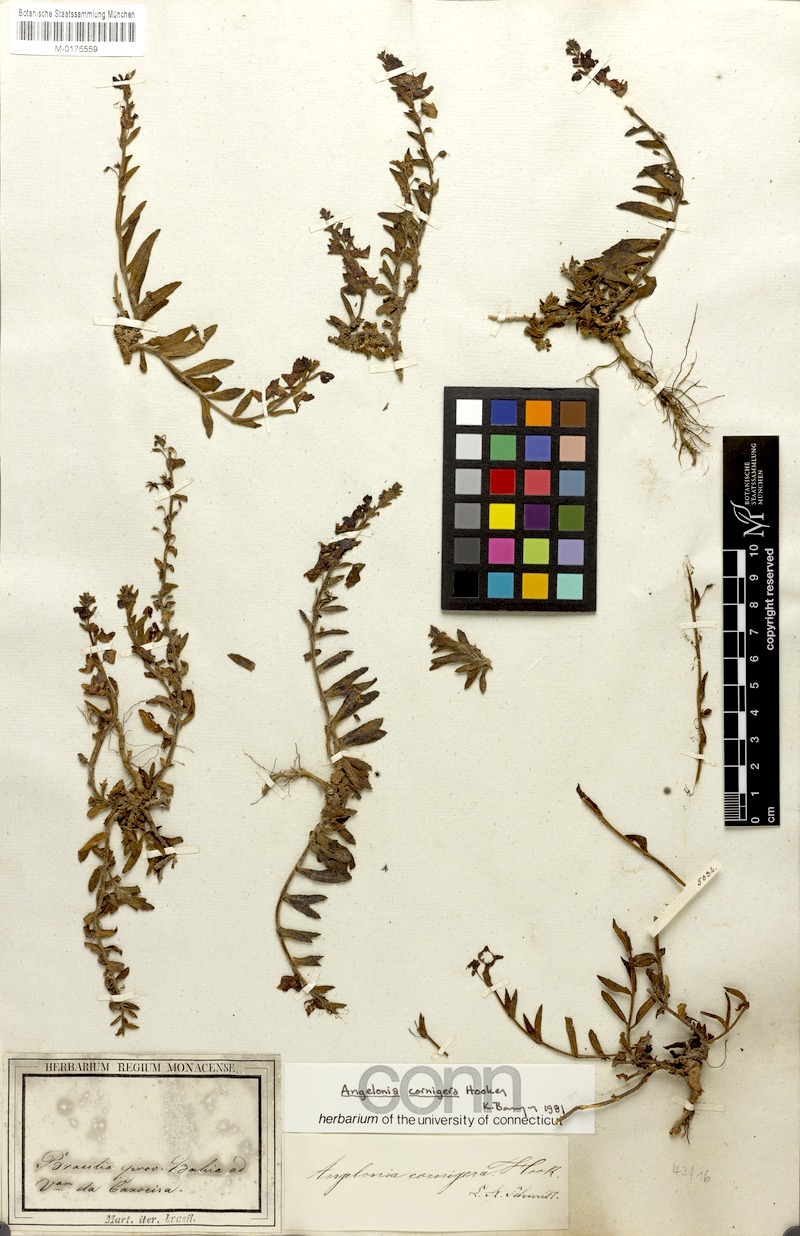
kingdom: Plantae
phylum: Tracheophyta
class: Magnoliopsida
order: Lamiales
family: Plantaginaceae
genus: Angelonia
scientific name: Angelonia cornigera
